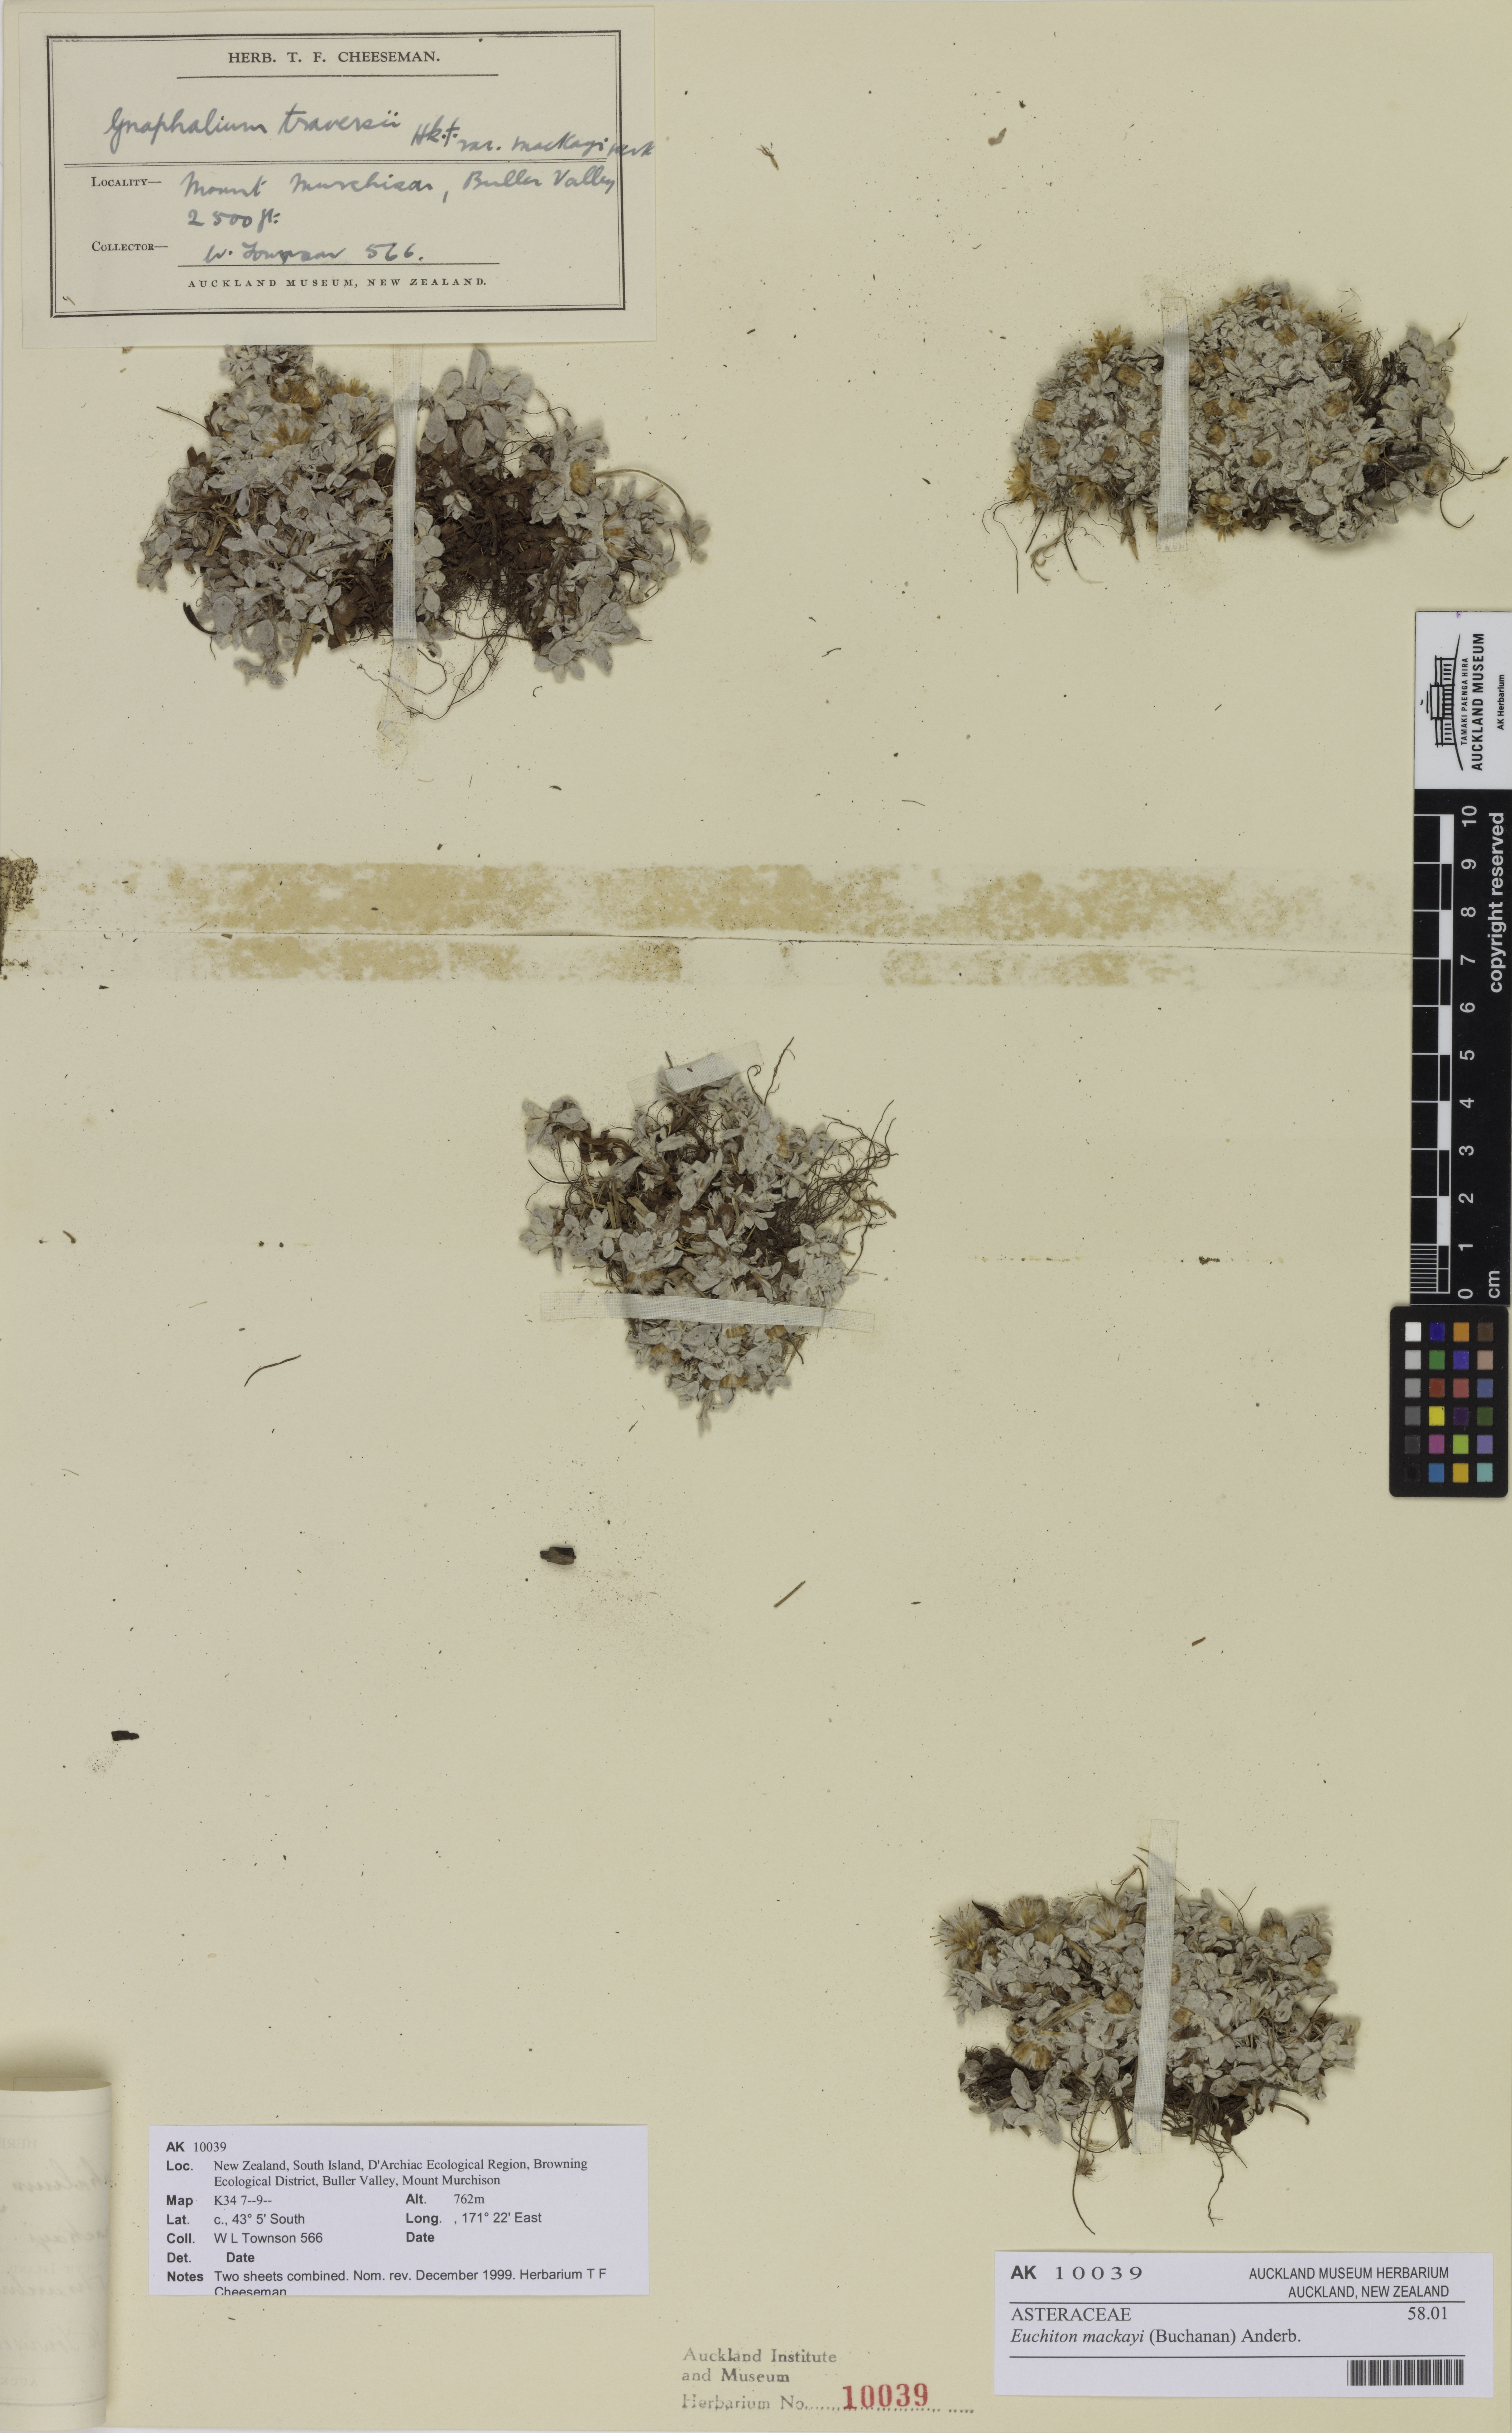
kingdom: Plantae
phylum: Tracheophyta
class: Magnoliopsida
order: Asterales
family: Asteraceae
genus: Argyrotegium
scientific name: Argyrotegium mackayi
